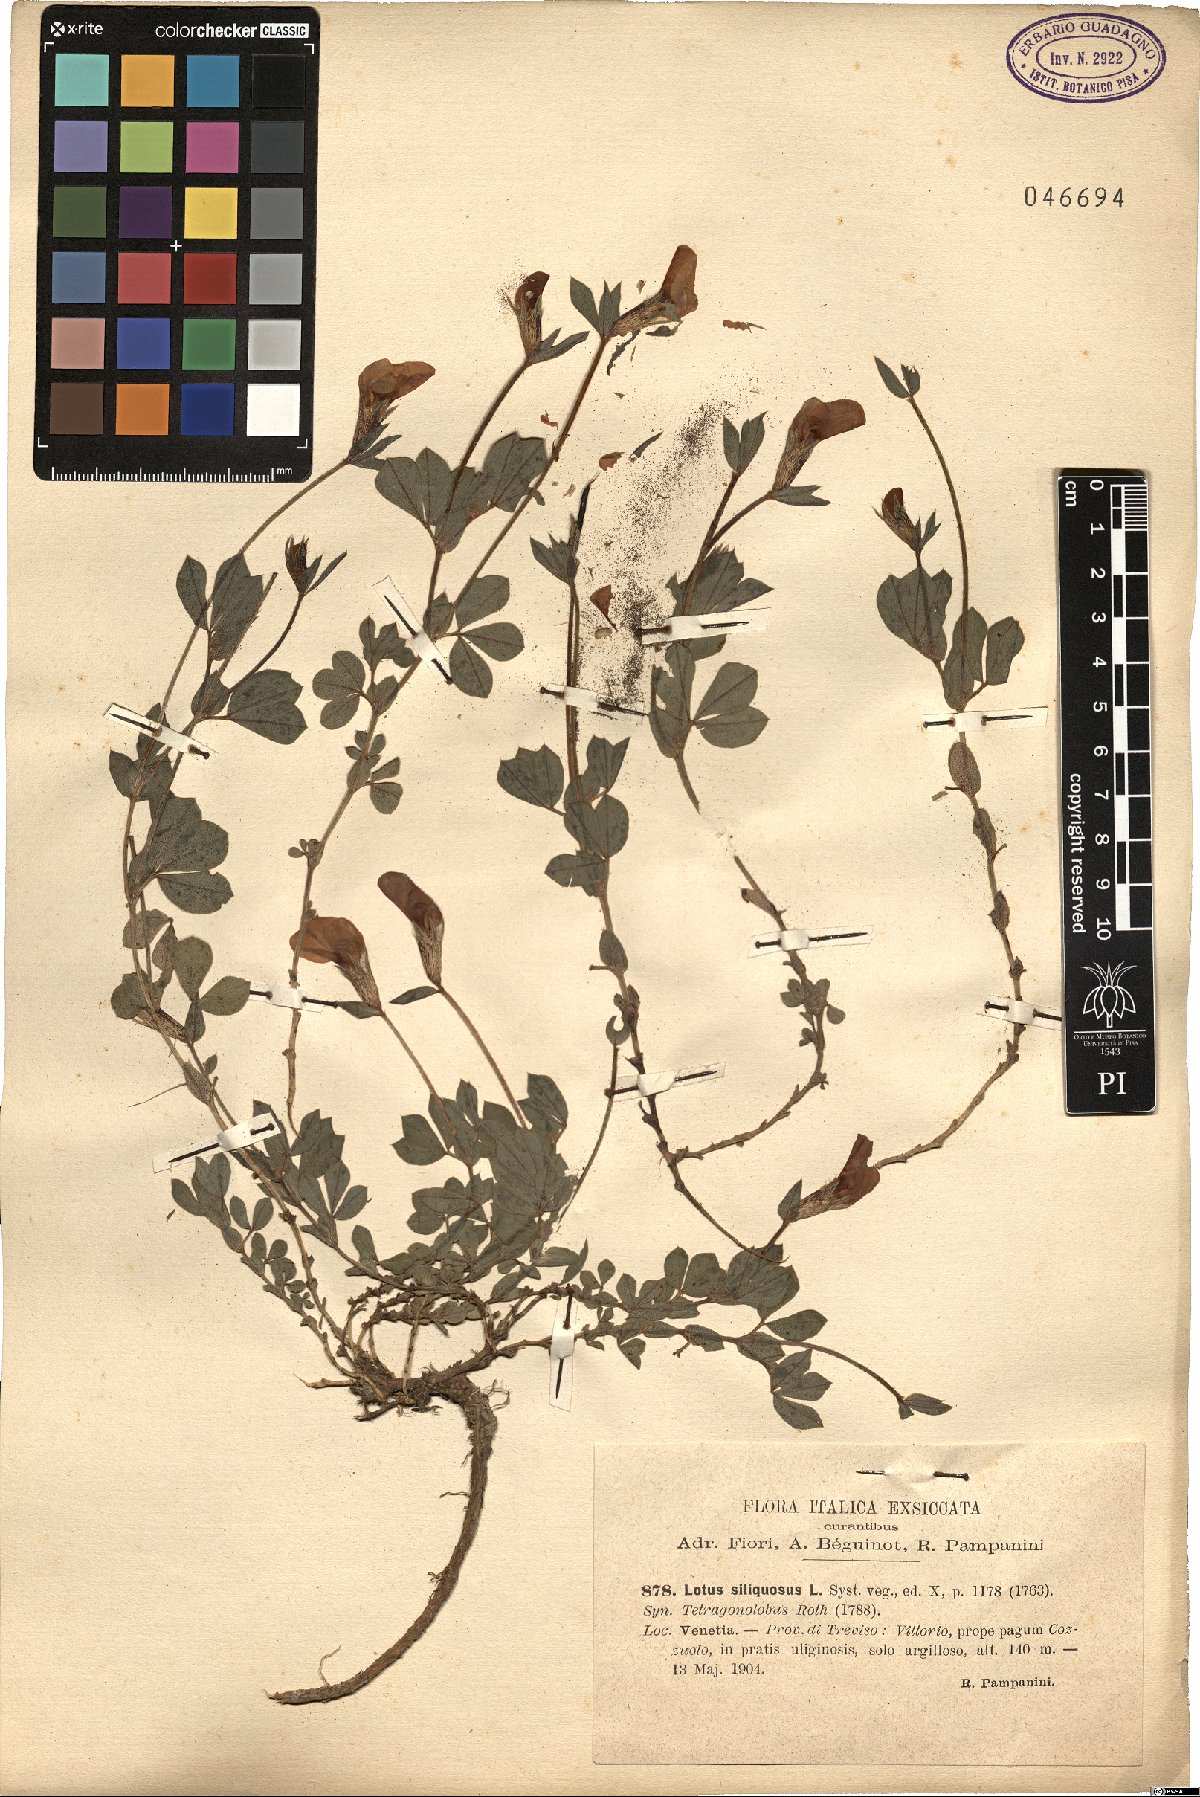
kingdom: Plantae
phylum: Tracheophyta
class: Magnoliopsida
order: Fabales
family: Fabaceae
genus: Lathyrus
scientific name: Lathyrus inconspicuus
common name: Inconspicuous pea
